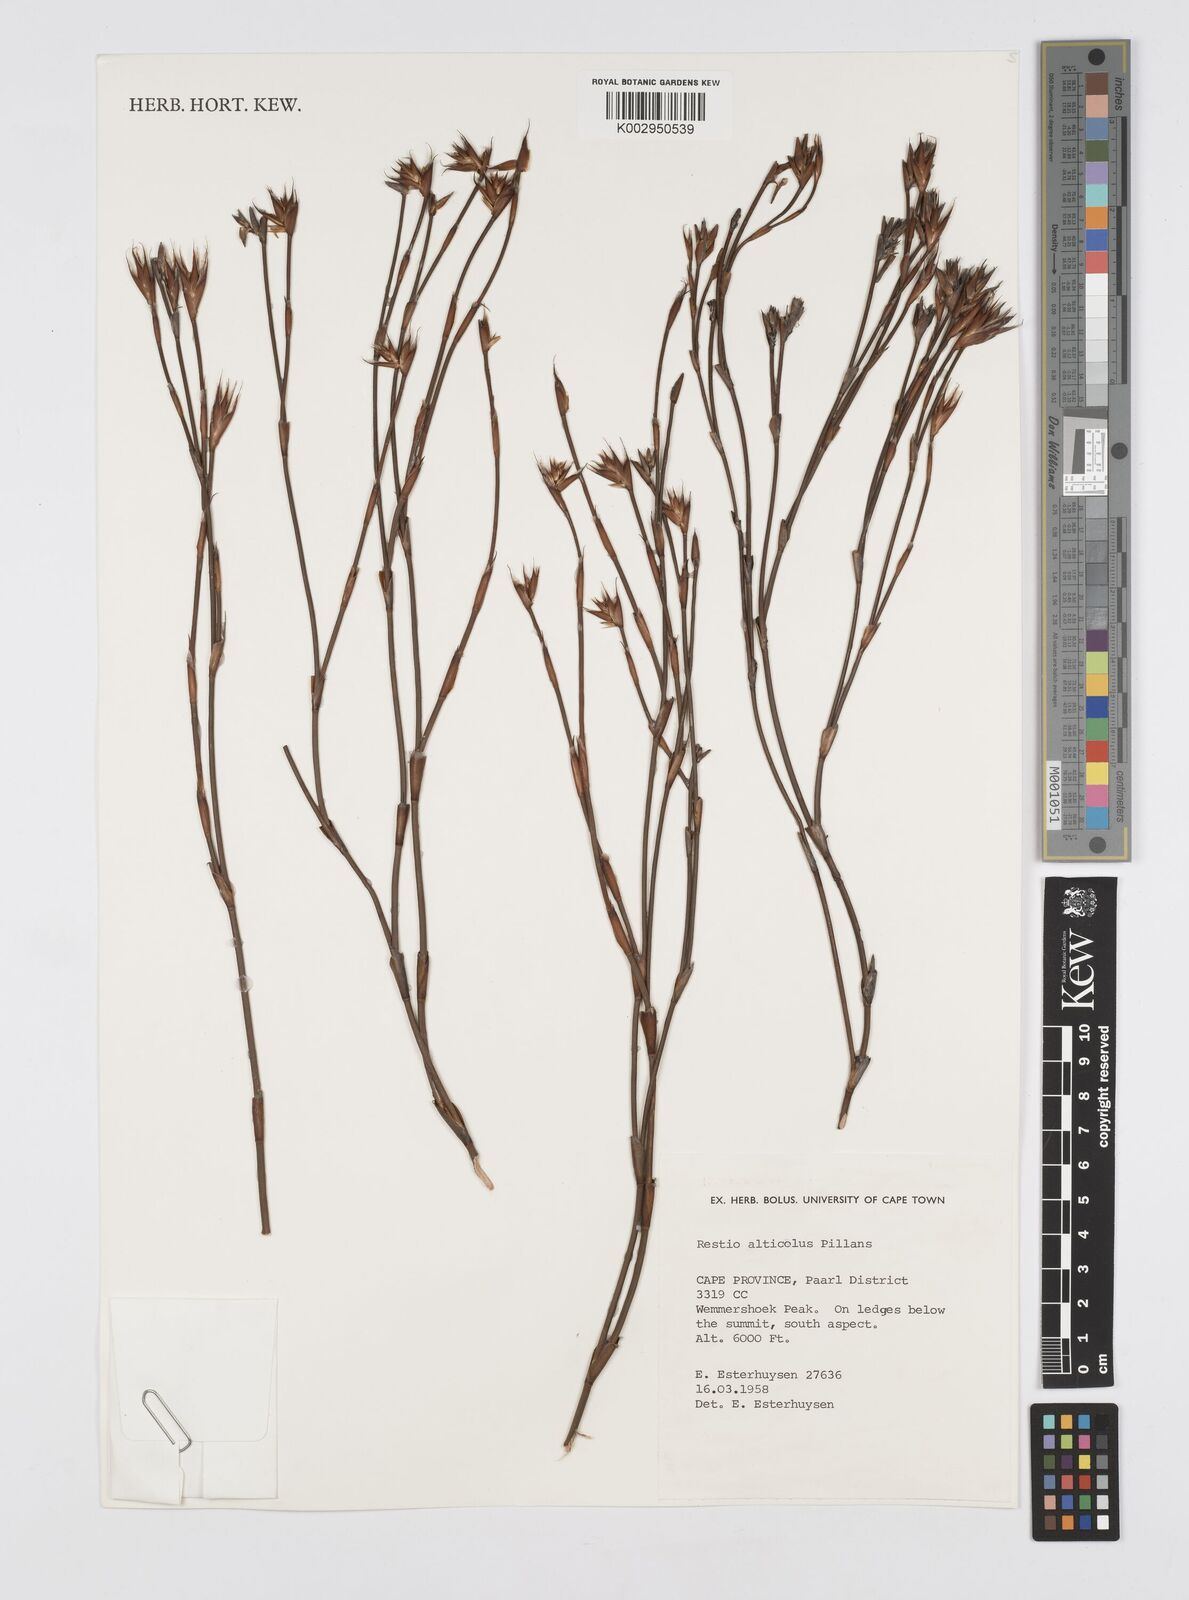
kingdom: Plantae
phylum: Tracheophyta
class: Liliopsida
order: Poales
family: Restionaceae
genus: Restio
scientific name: Restio alticola
